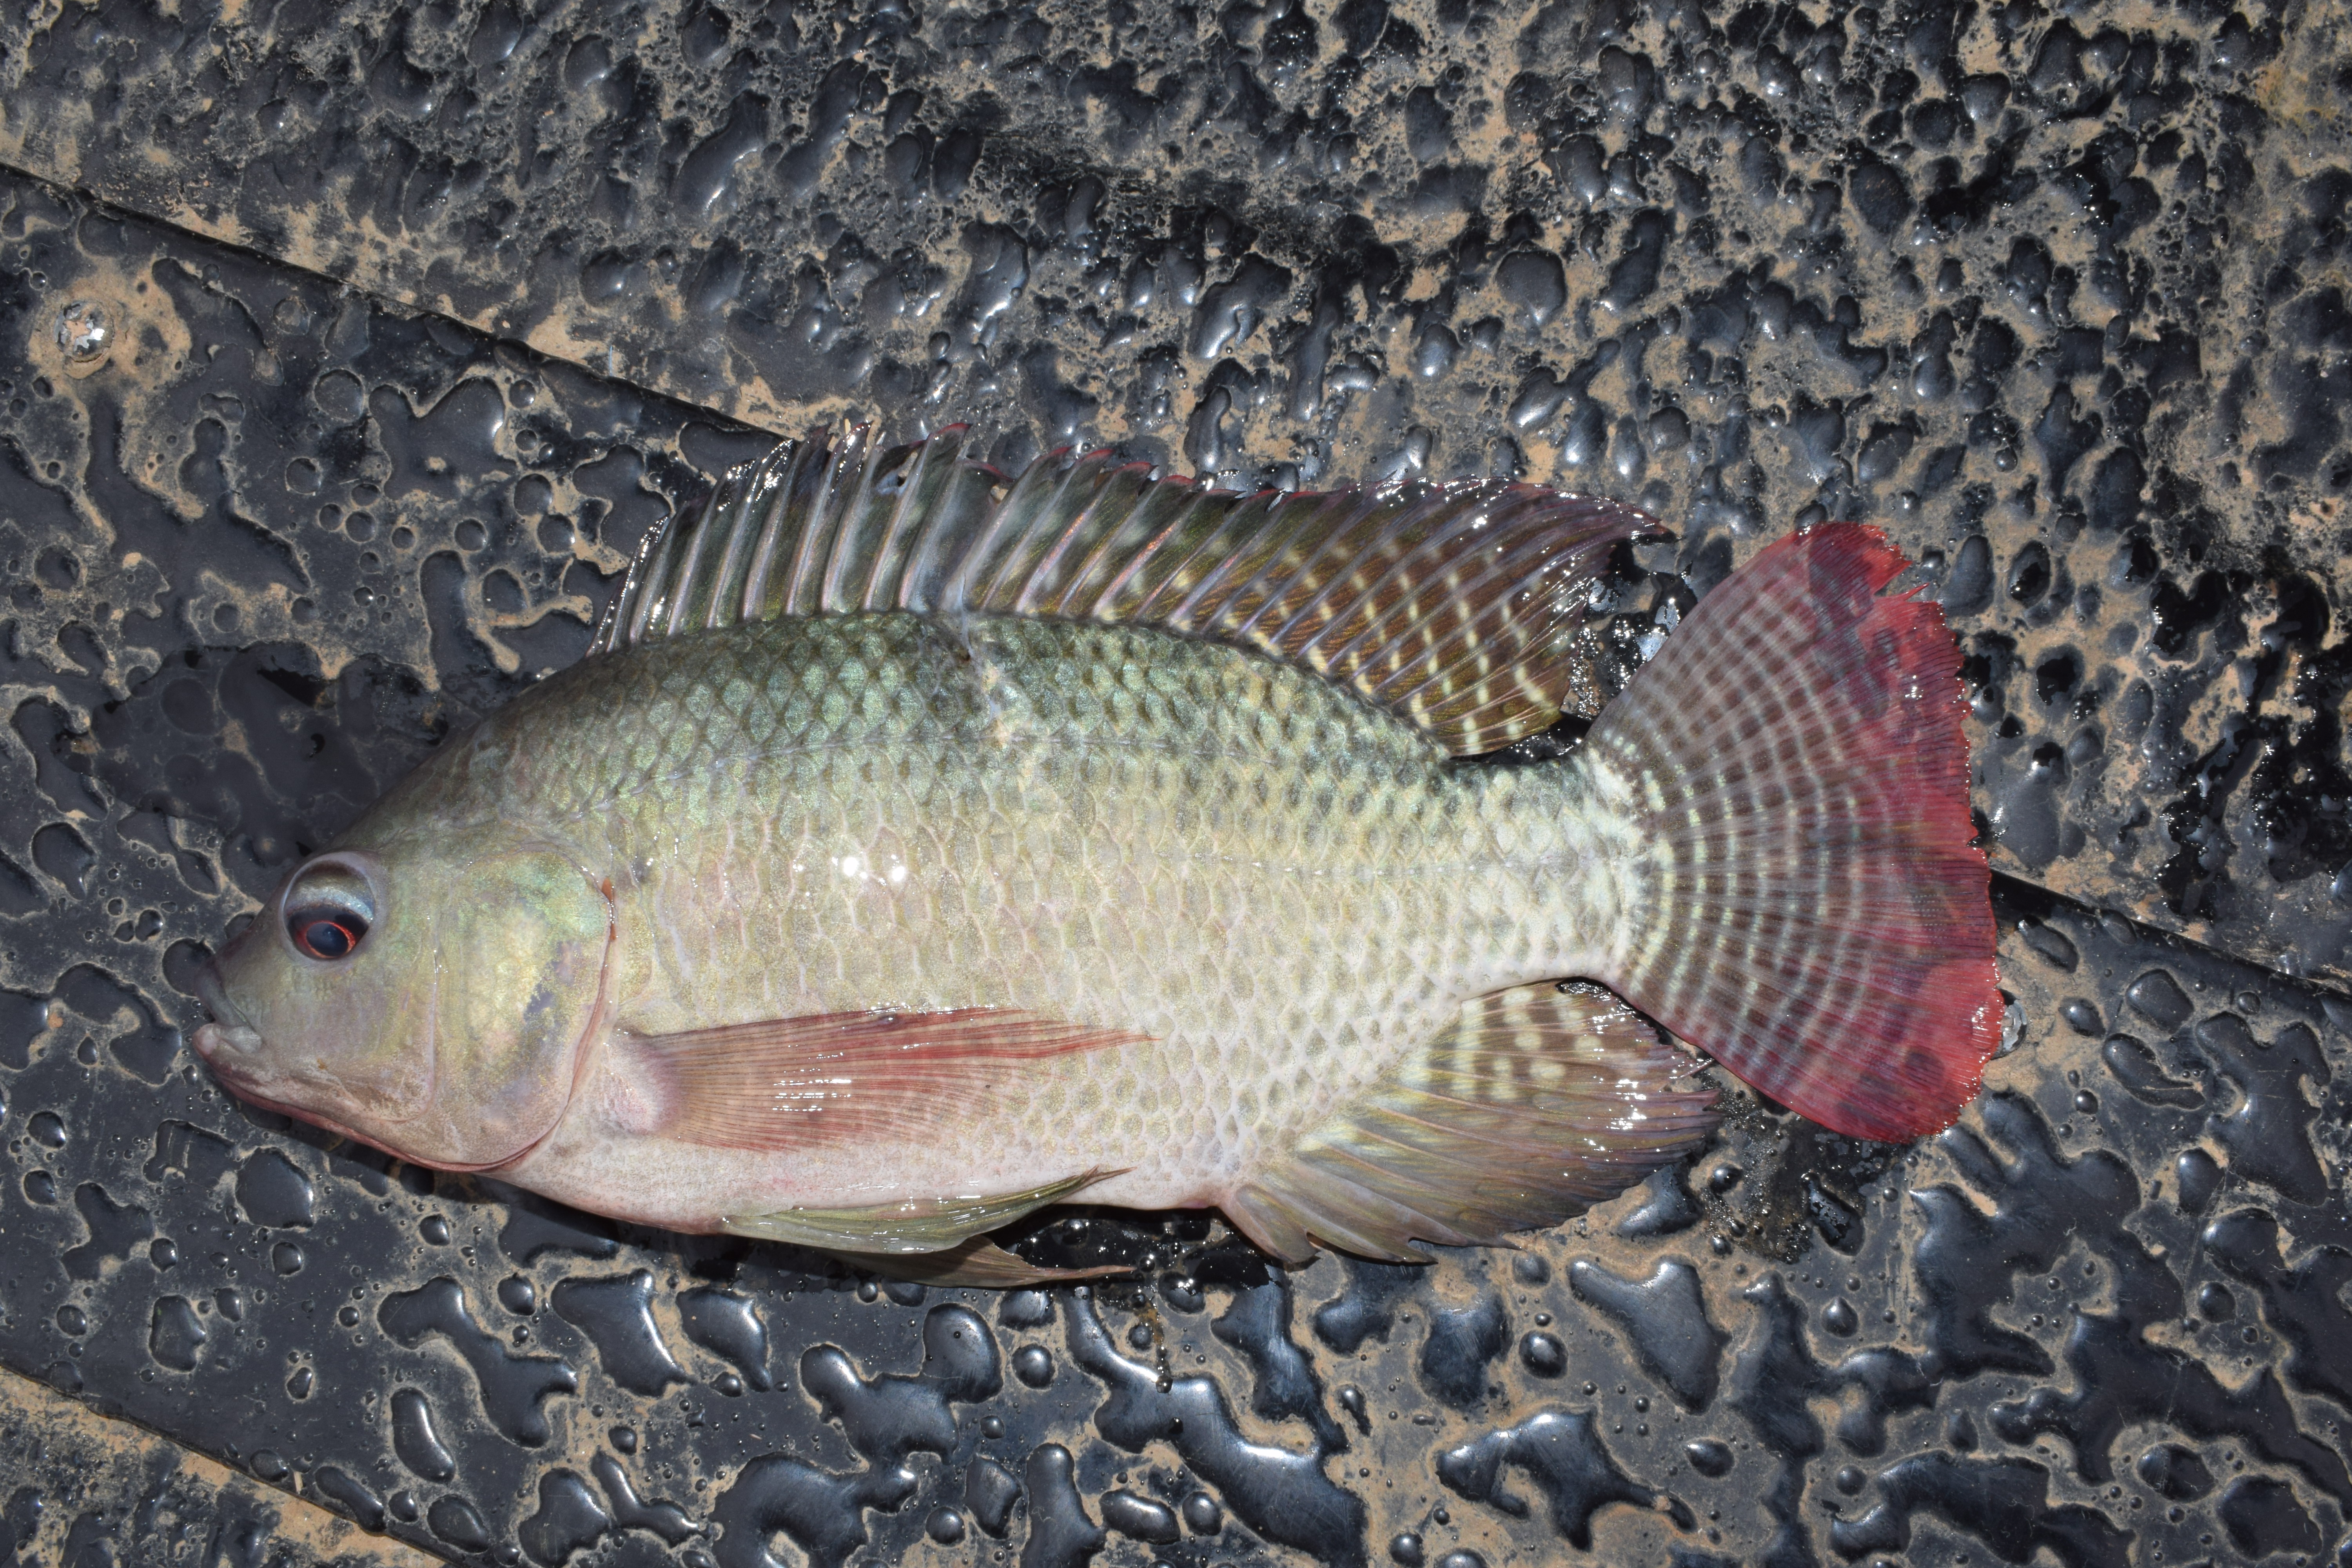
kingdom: Animalia
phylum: Chordata
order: Perciformes
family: Cichlidae
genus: Oreochromis
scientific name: Oreochromis niloticus
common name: Nile tilapia
